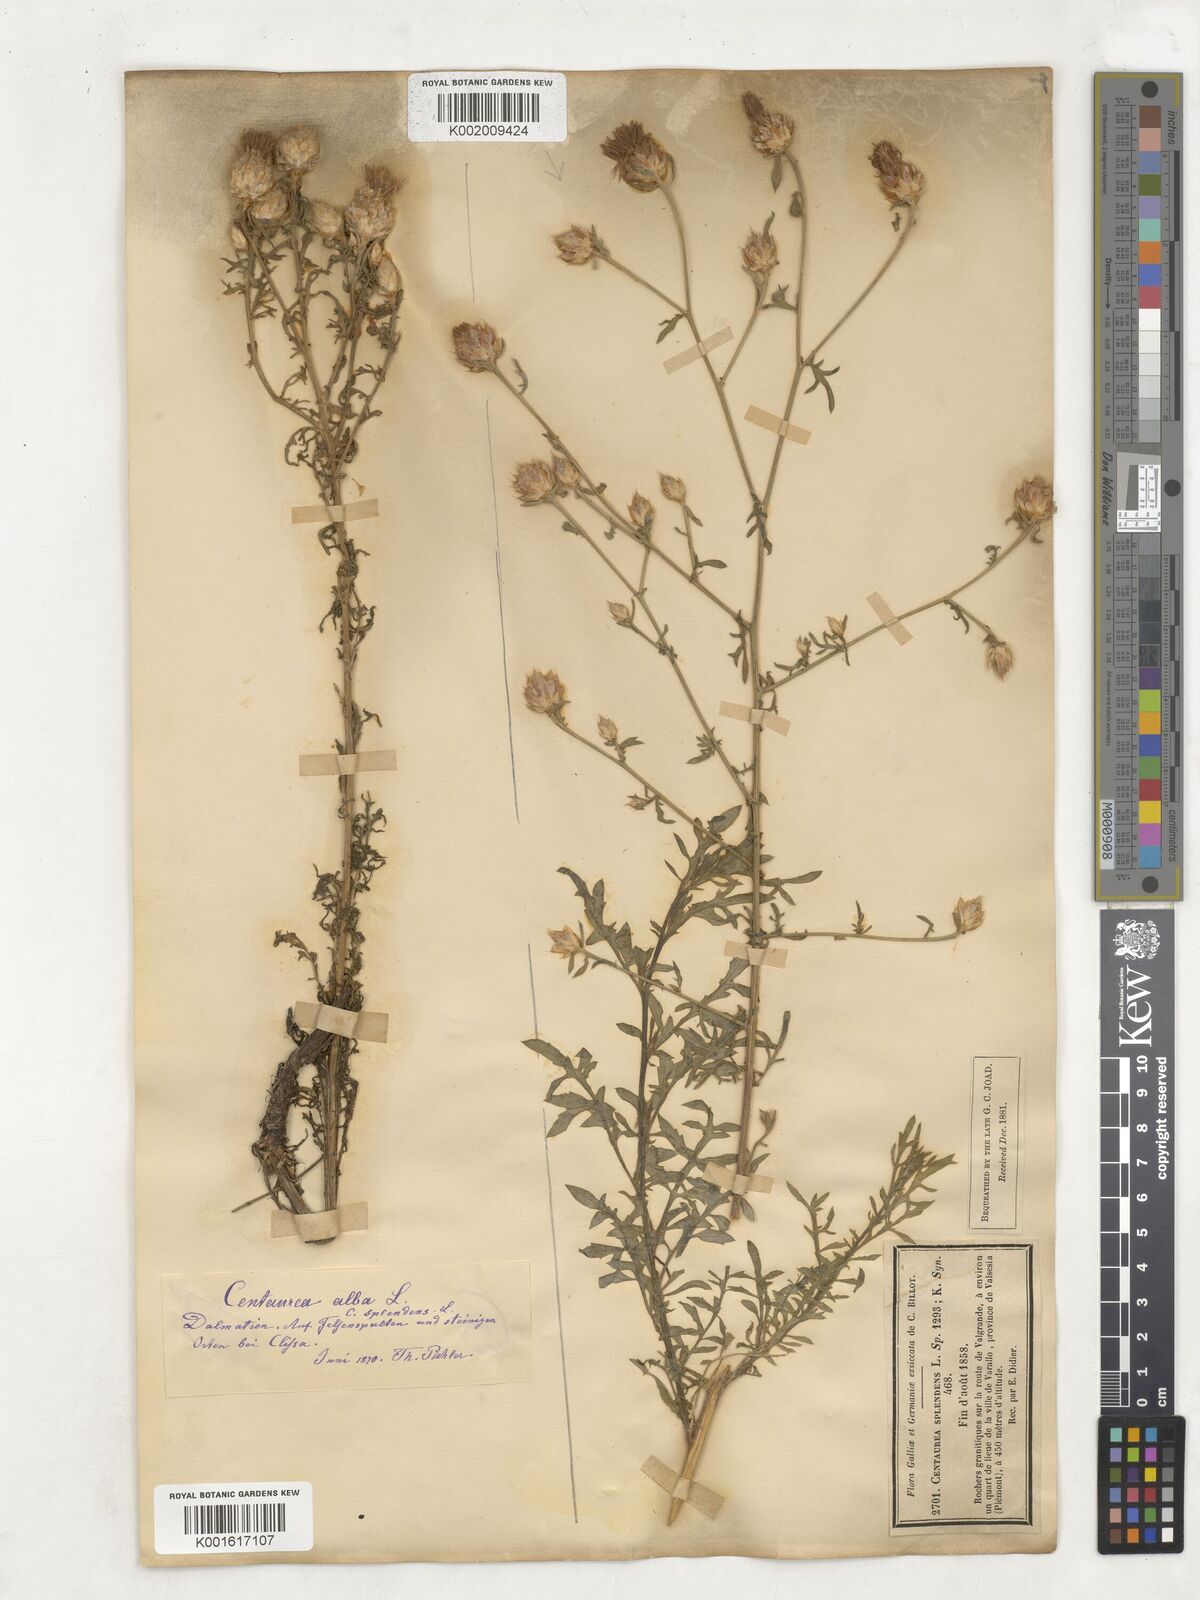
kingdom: Plantae
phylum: Tracheophyta
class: Magnoliopsida
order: Asterales
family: Asteraceae
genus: Centaurea
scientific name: Centaurea splendens
